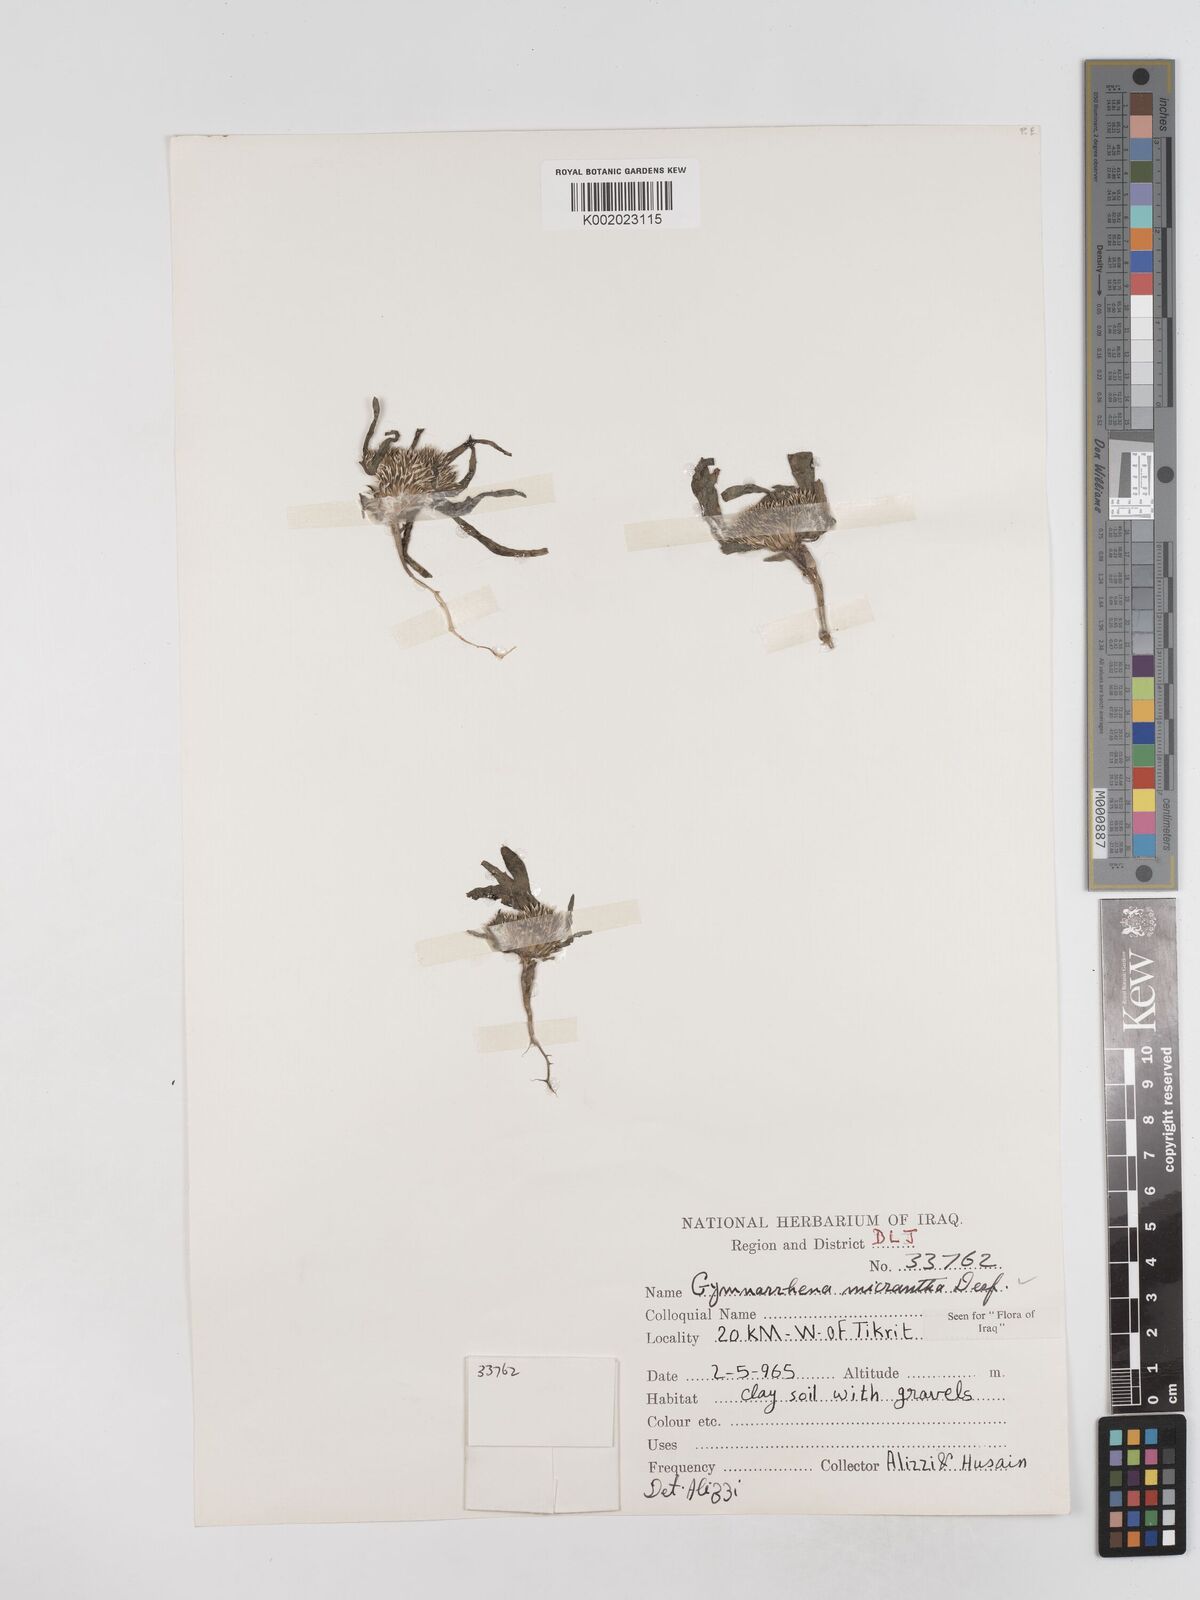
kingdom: Plantae
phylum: Tracheophyta
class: Magnoliopsida
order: Asterales
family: Asteraceae
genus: Gymnarrhena
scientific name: Gymnarrhena micrantha
